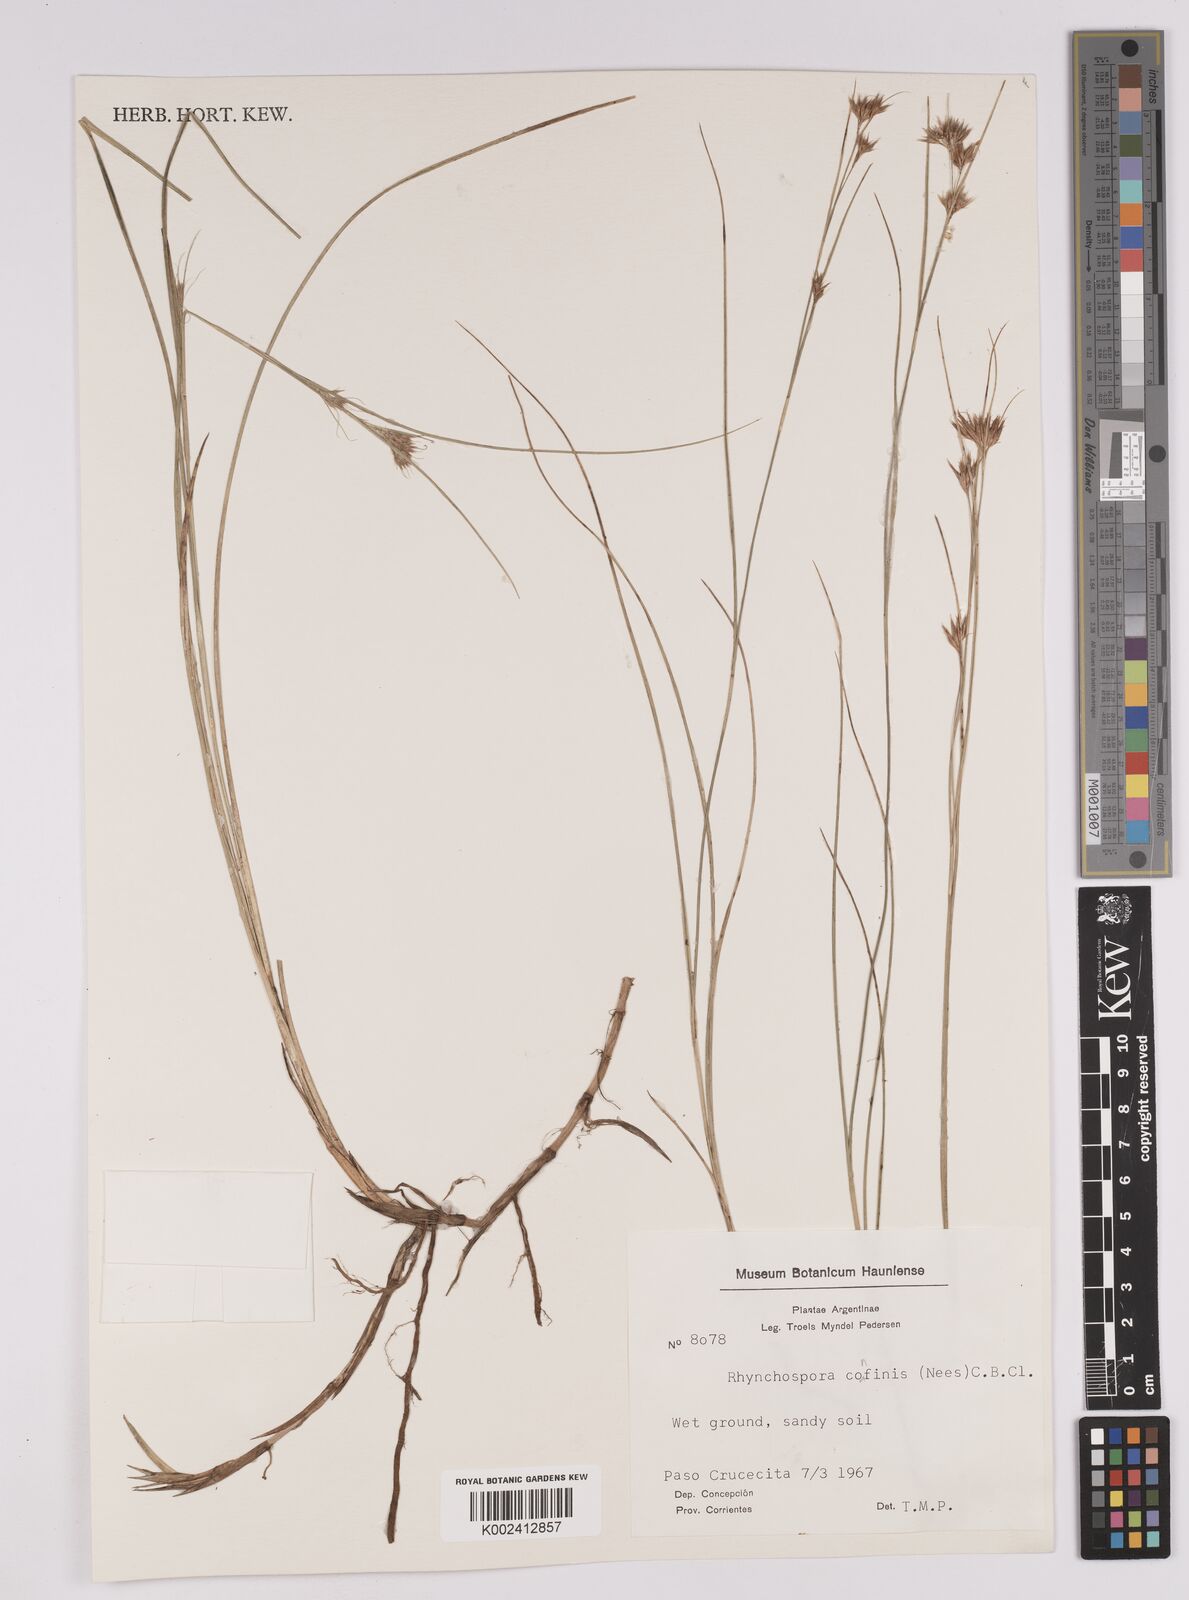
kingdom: Plantae
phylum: Tracheophyta
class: Liliopsida
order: Poales
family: Cyperaceae
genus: Rhynchospora
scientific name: Rhynchospora confinis
